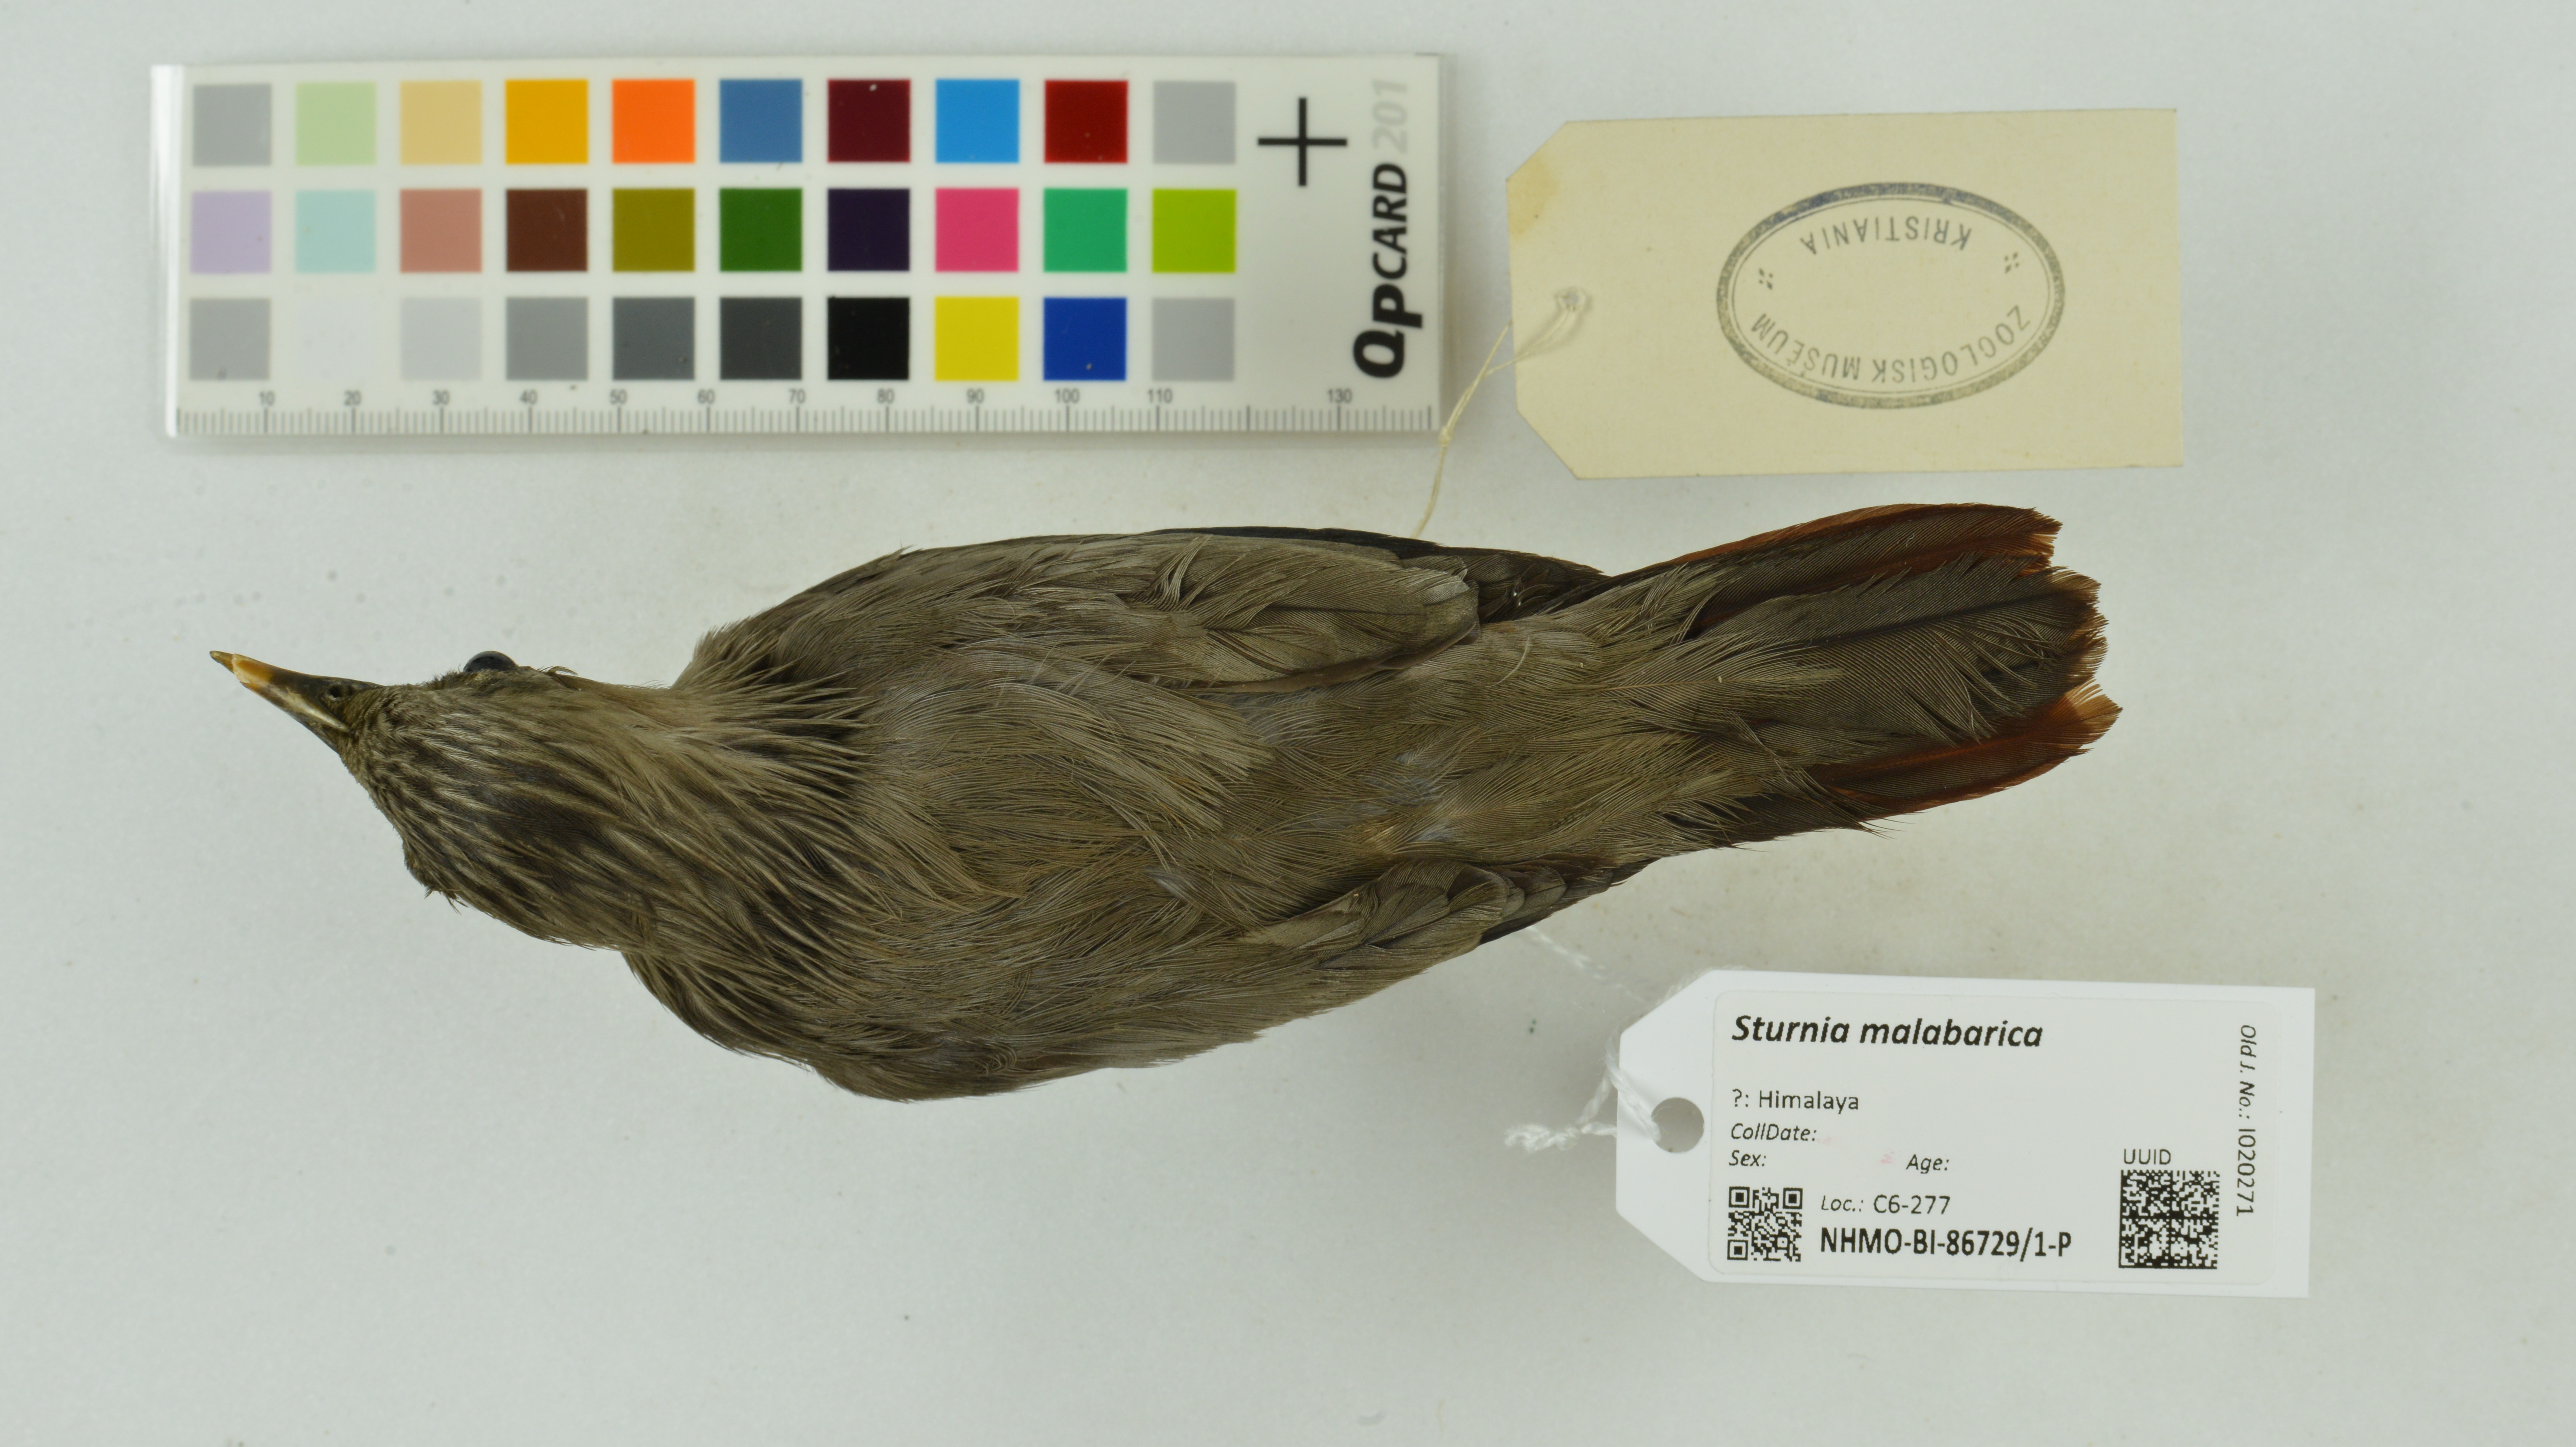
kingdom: Animalia
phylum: Chordata
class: Aves
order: Passeriformes
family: Sturnidae
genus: Sturnia
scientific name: Sturnia malabarica
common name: Chestnut-tailed starling
